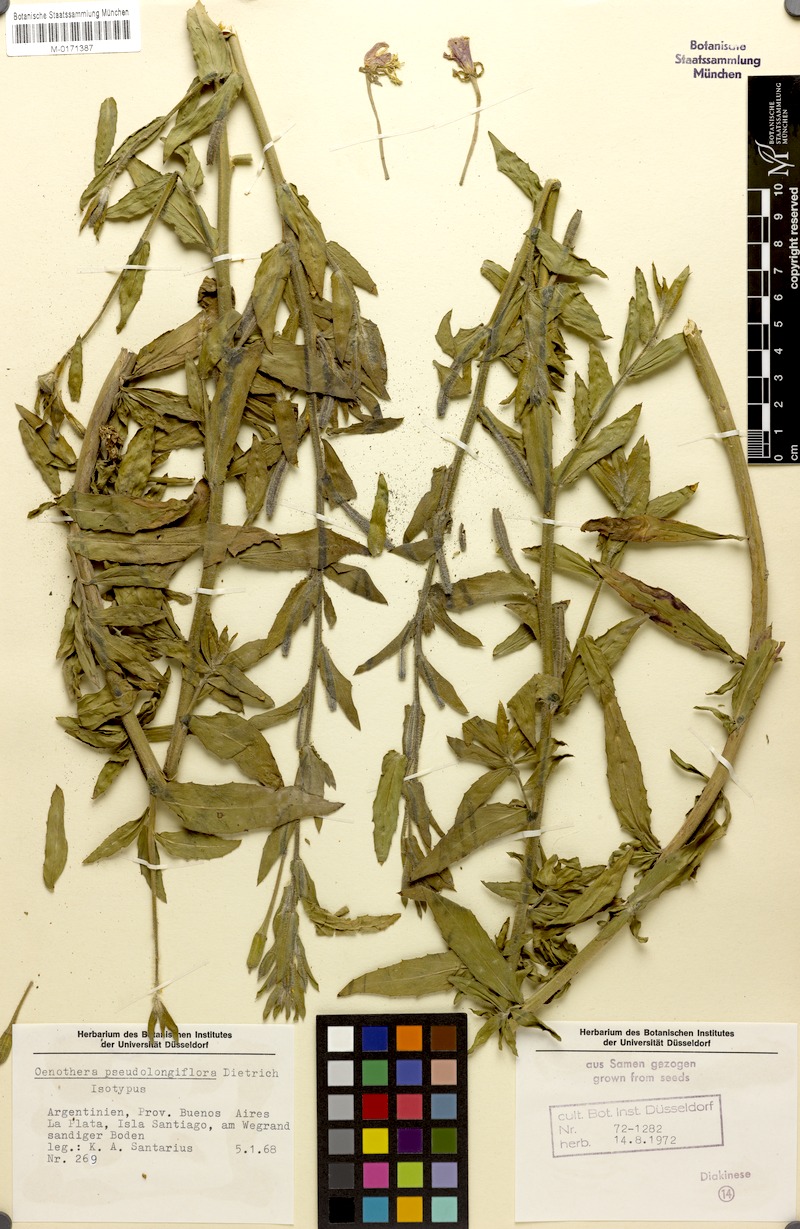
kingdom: Plantae
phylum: Tracheophyta
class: Magnoliopsida
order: Myrtales
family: Onagraceae
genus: Oenothera
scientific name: Oenothera parodiana
